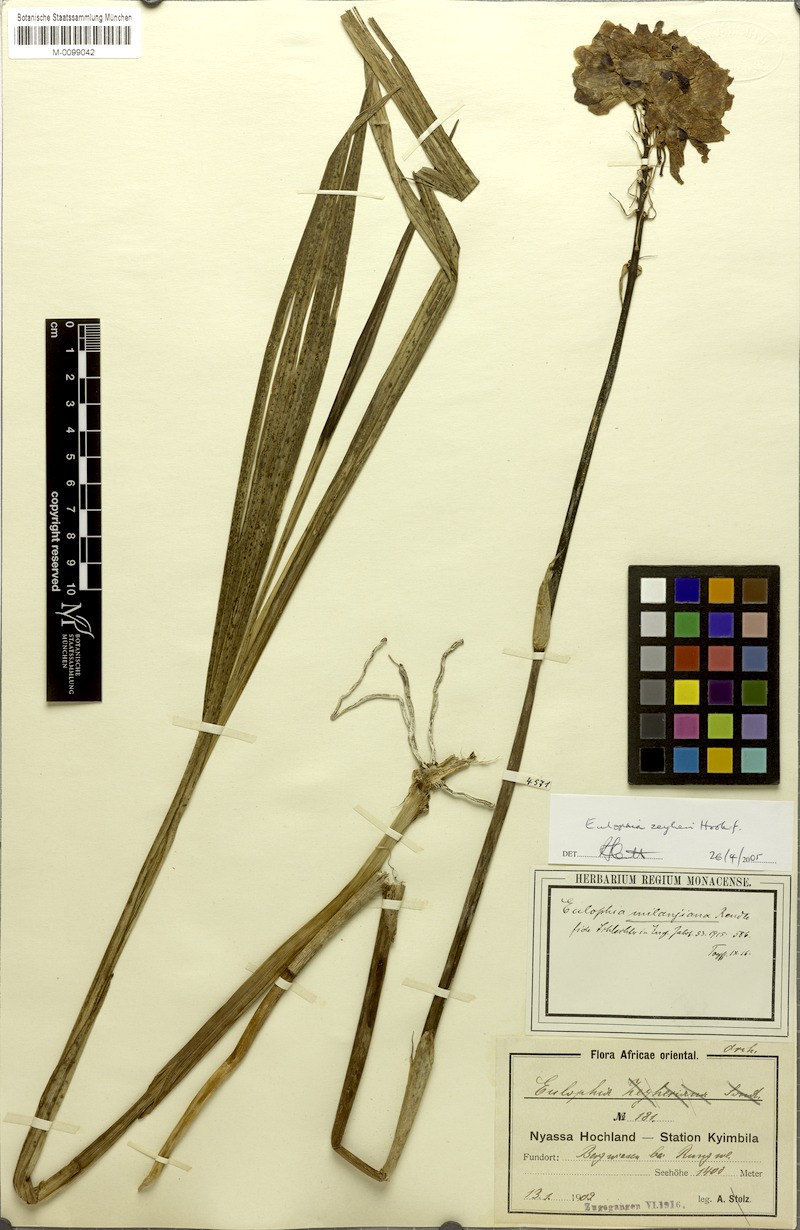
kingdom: Plantae
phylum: Tracheophyta
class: Liliopsida
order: Asparagales
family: Orchidaceae
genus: Eulophia
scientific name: Eulophia mechowii
